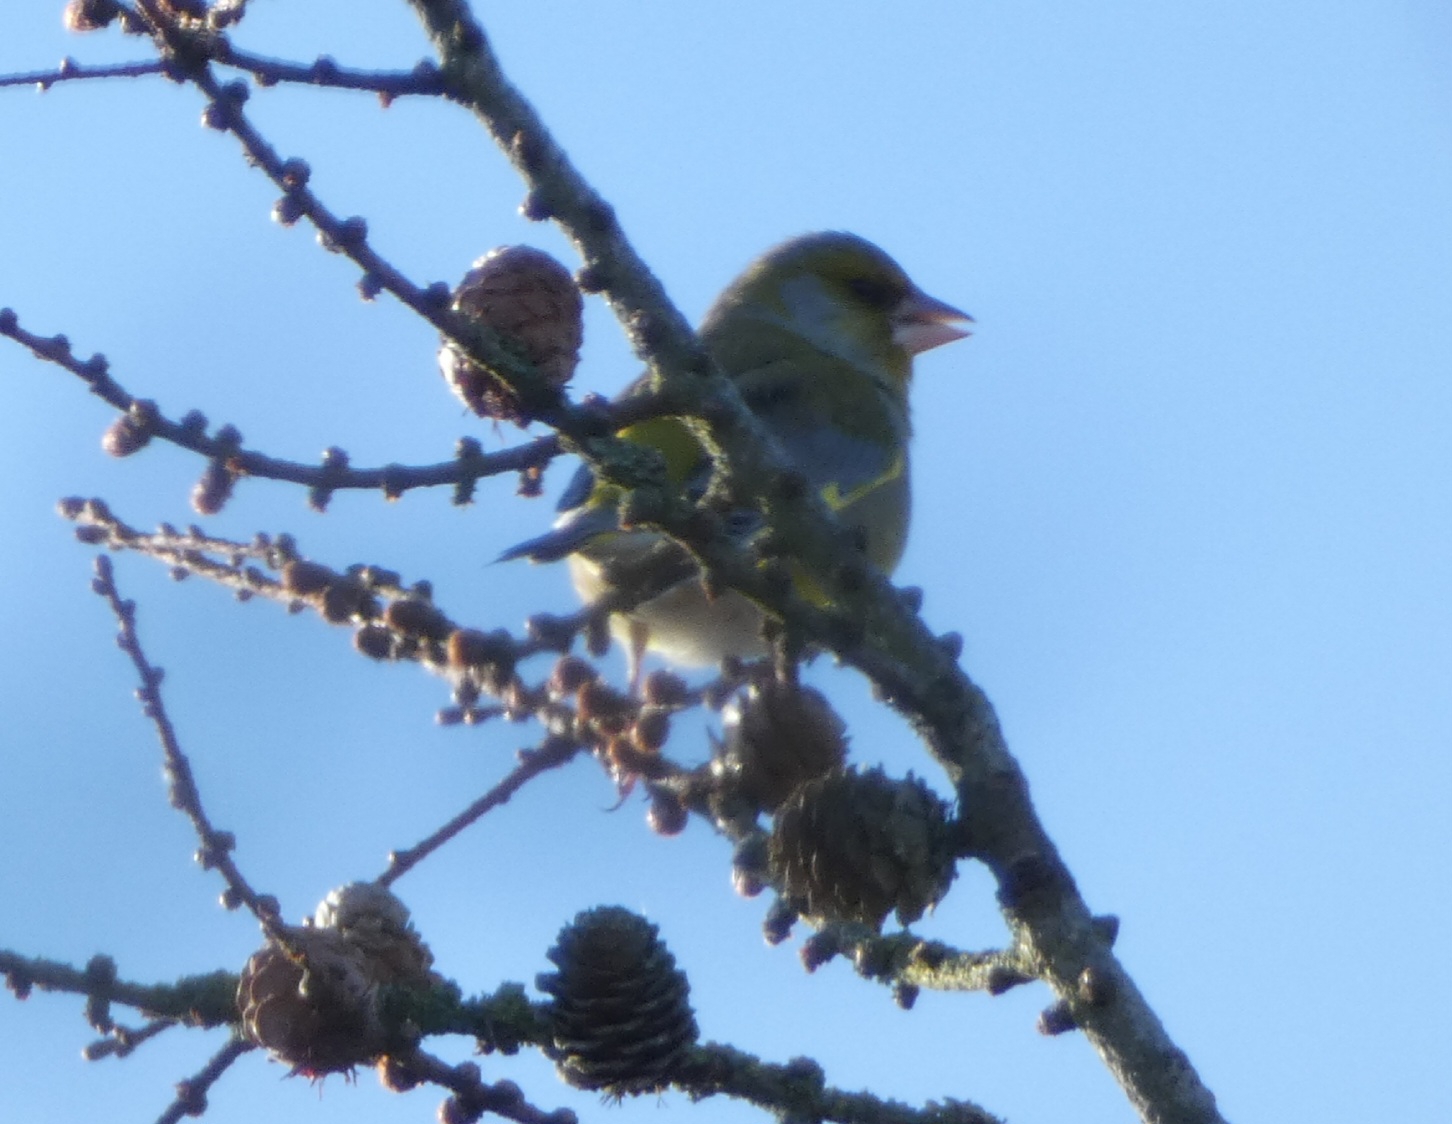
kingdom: Plantae
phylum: Tracheophyta
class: Liliopsida
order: Poales
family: Poaceae
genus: Chloris
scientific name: Chloris chloris
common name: Grønirisk
